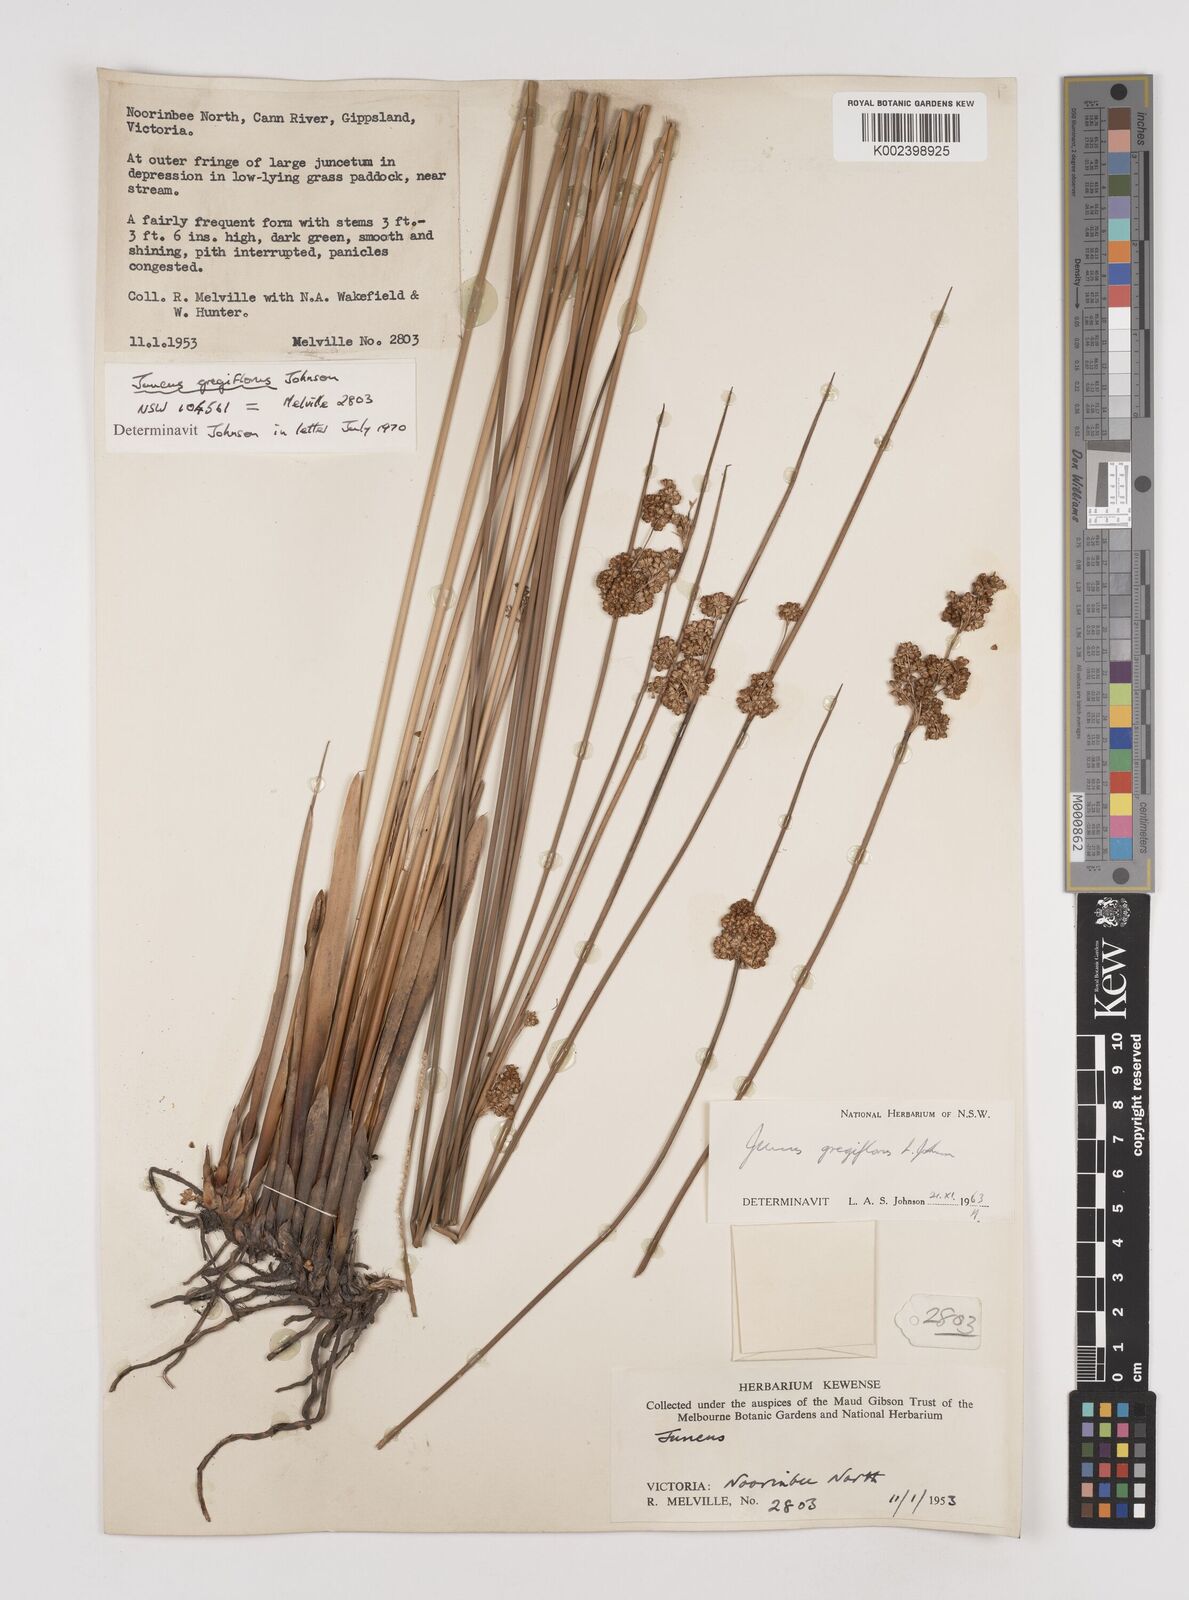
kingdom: Plantae
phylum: Tracheophyta
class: Liliopsida
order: Poales
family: Juncaceae
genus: Juncus
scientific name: Juncus gregiflorus
